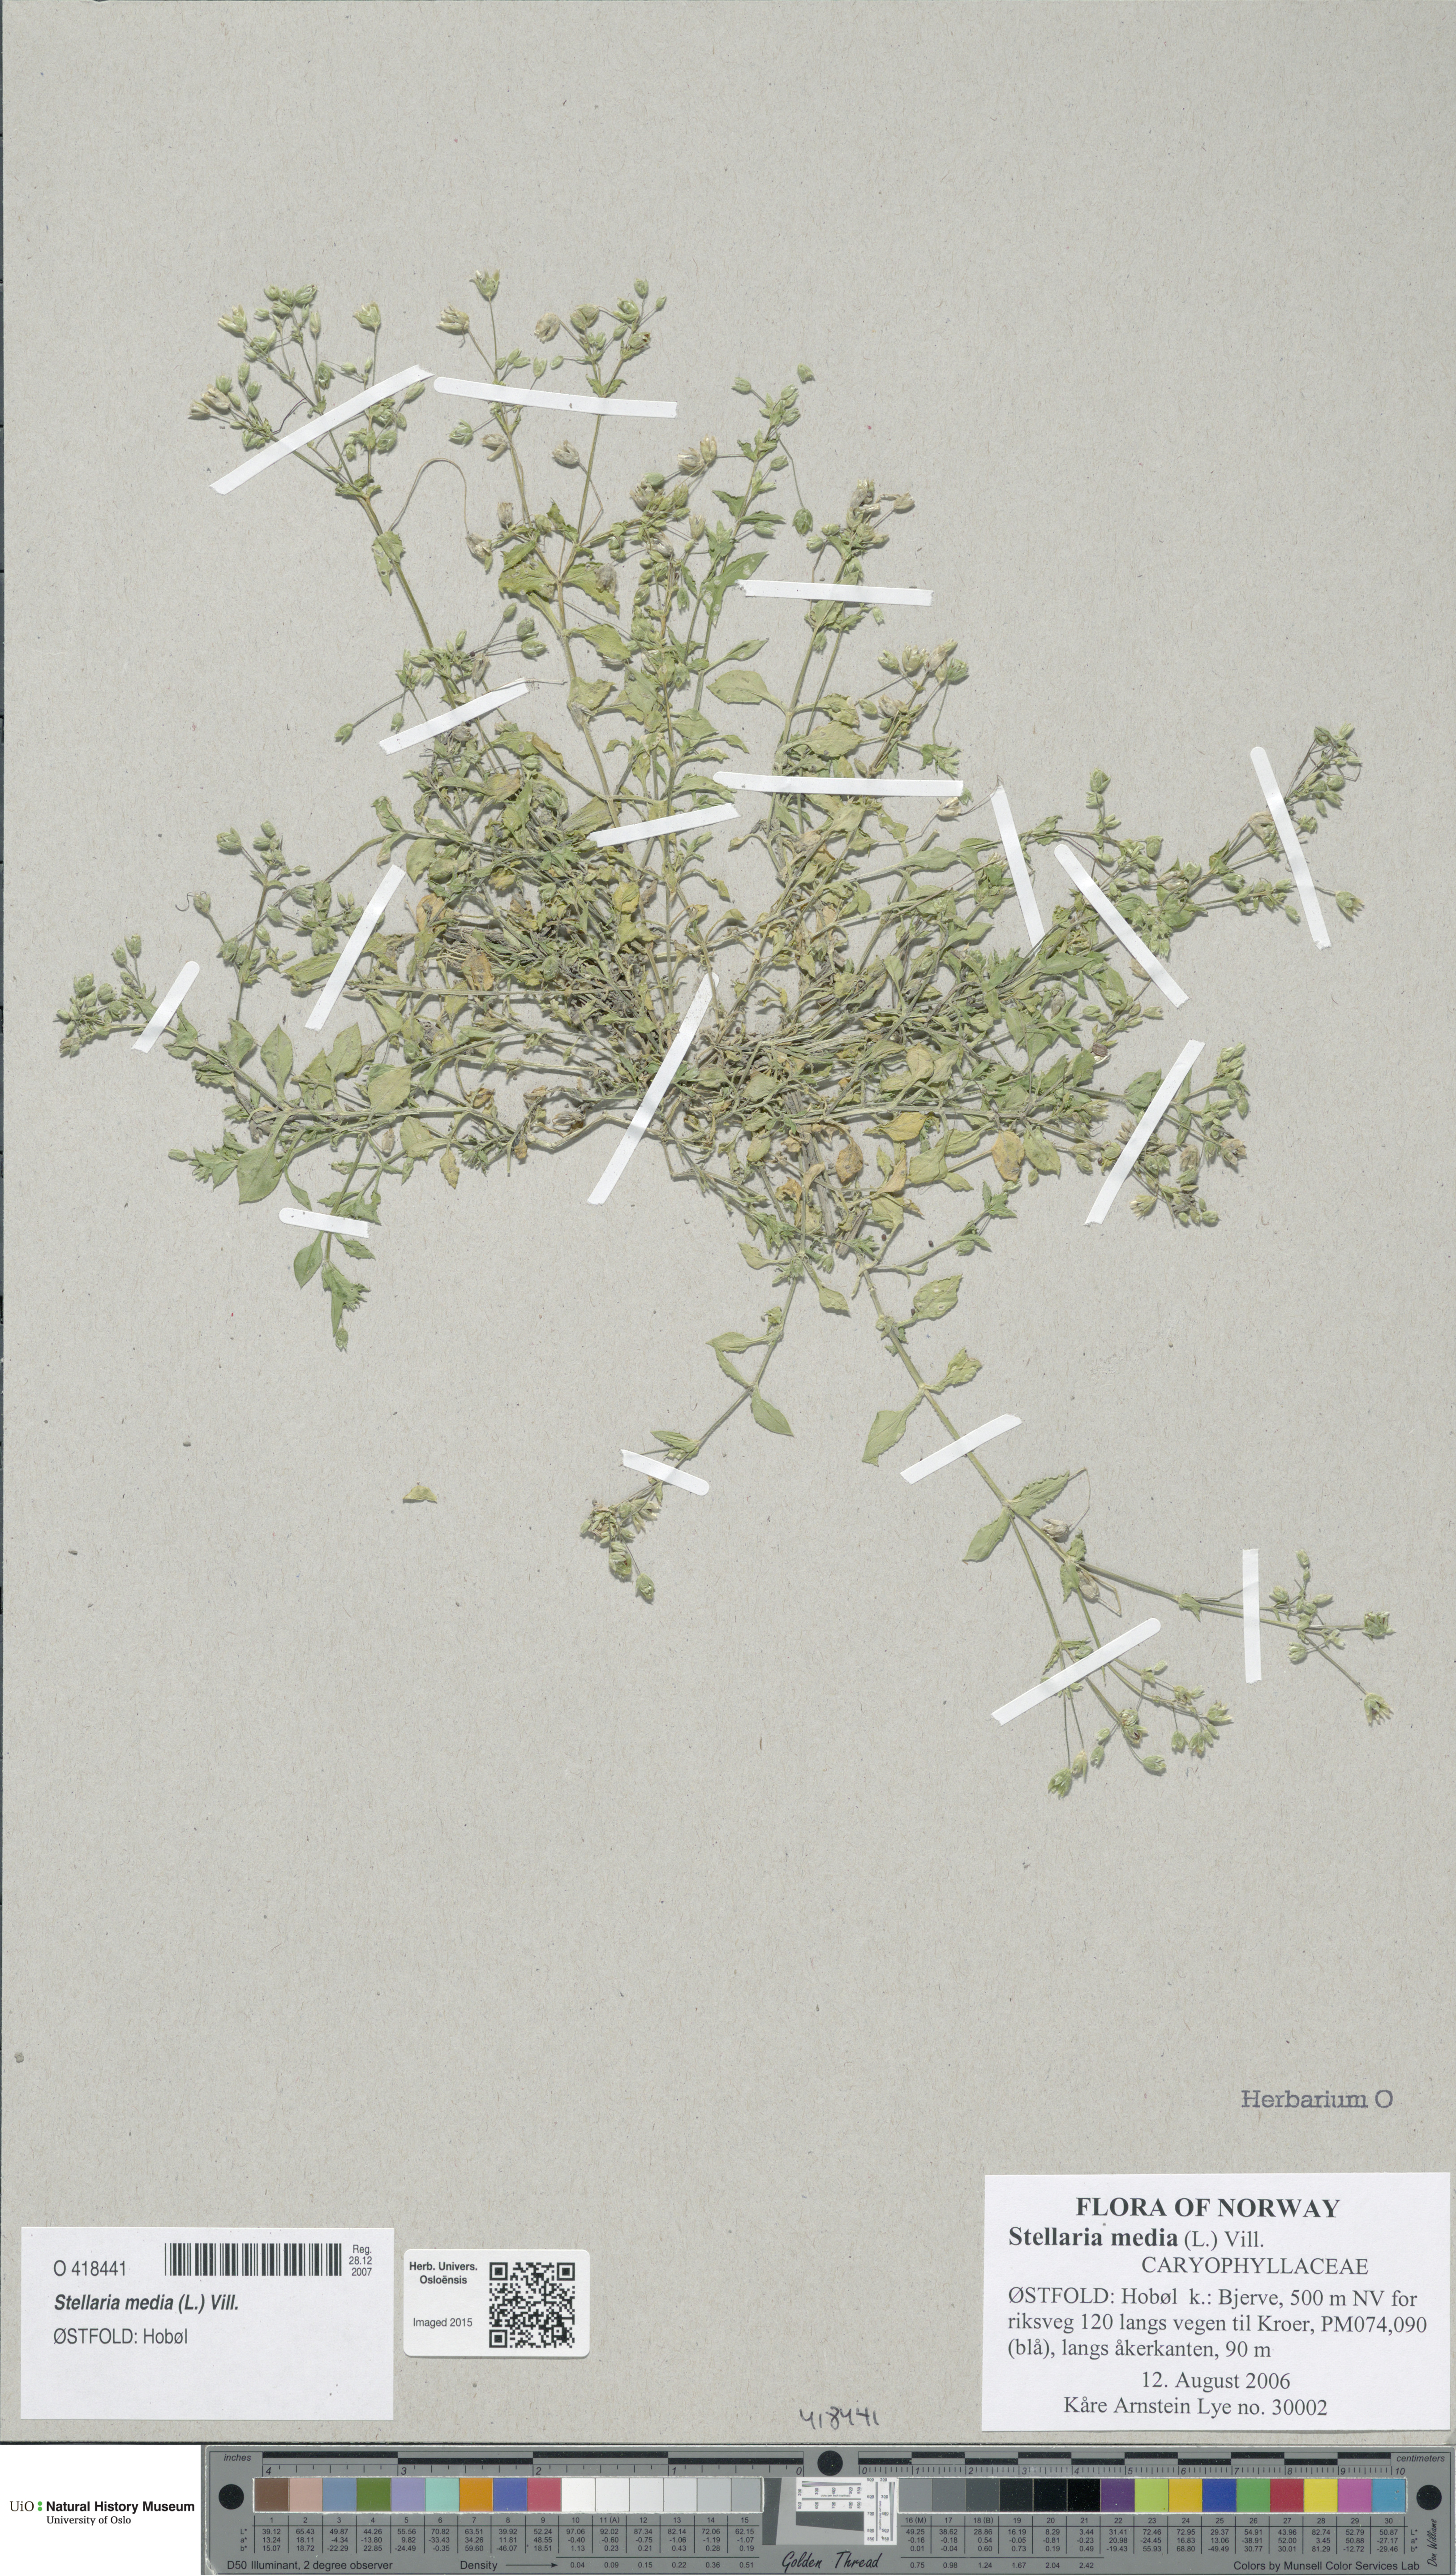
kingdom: Plantae
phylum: Tracheophyta
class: Magnoliopsida
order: Caryophyllales
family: Caryophyllaceae
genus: Stellaria
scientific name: Stellaria media
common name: Common chickweed
